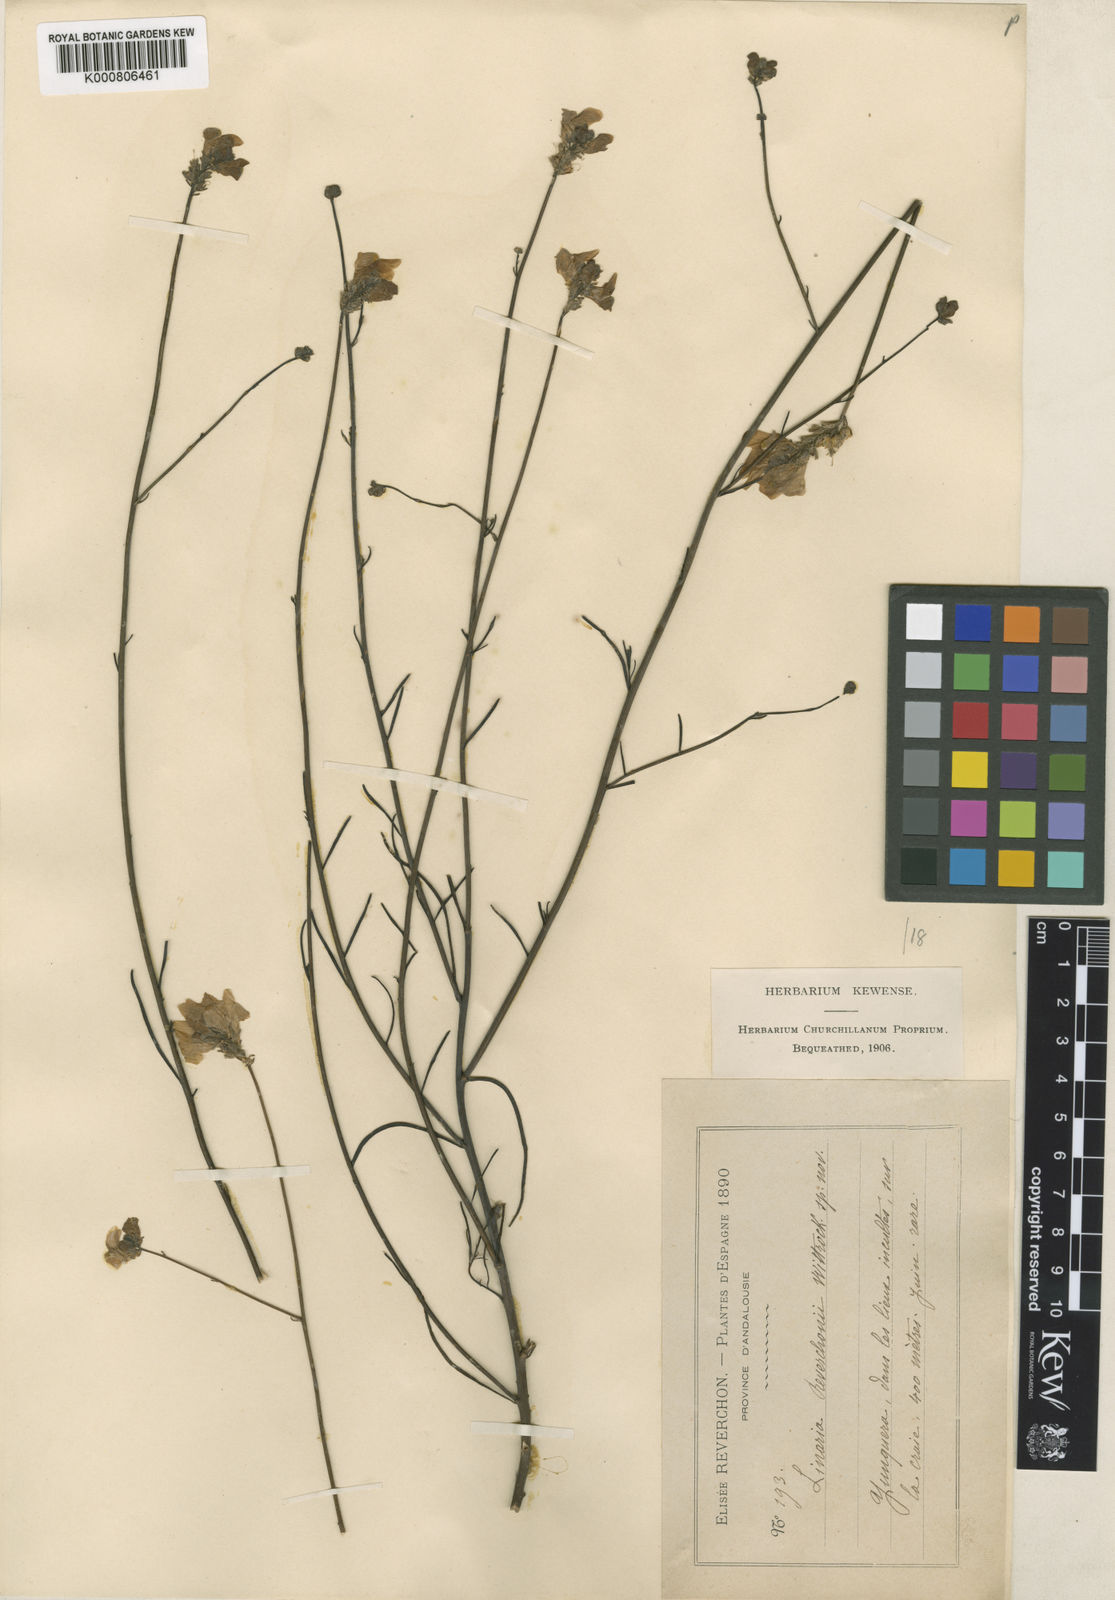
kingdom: Plantae
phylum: Tracheophyta
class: Magnoliopsida
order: Lamiales
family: Plantaginaceae
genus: Linaria
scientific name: Linaria clementei
